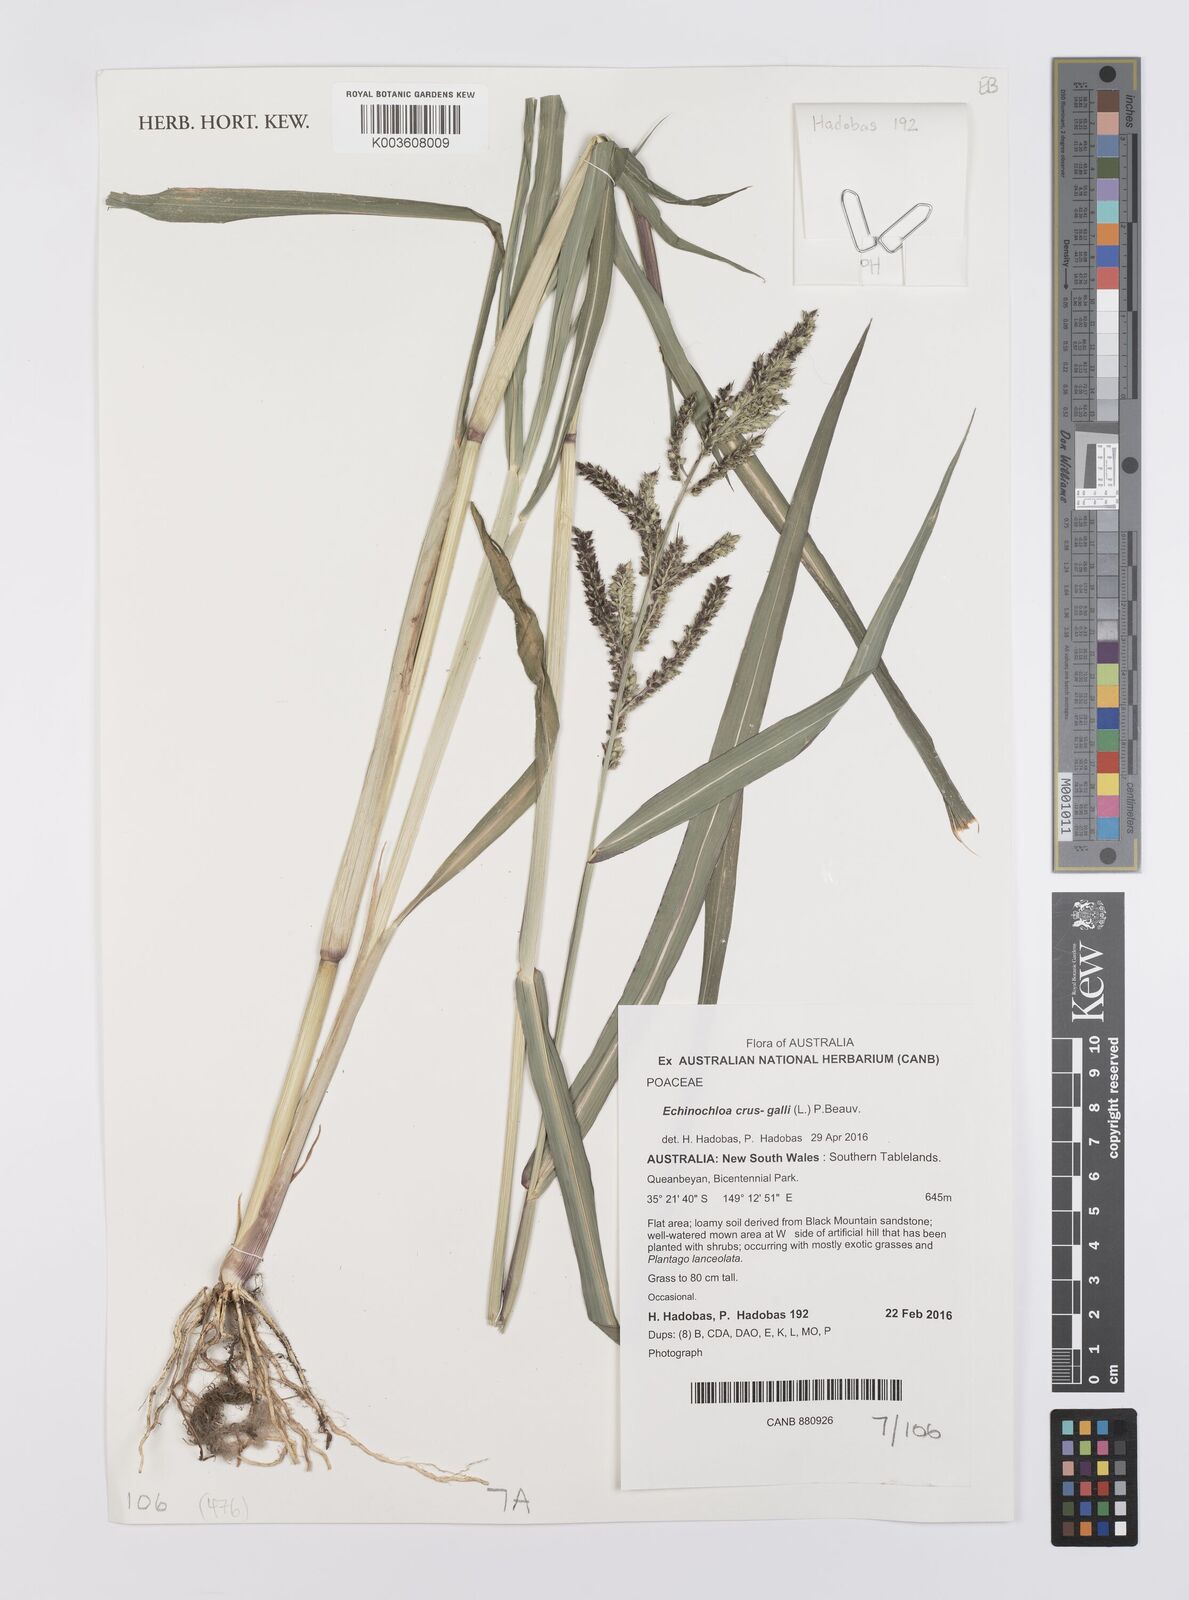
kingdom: Plantae
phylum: Tracheophyta
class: Liliopsida
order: Poales
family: Poaceae
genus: Echinochloa
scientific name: Echinochloa crus-galli
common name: Cockspur
